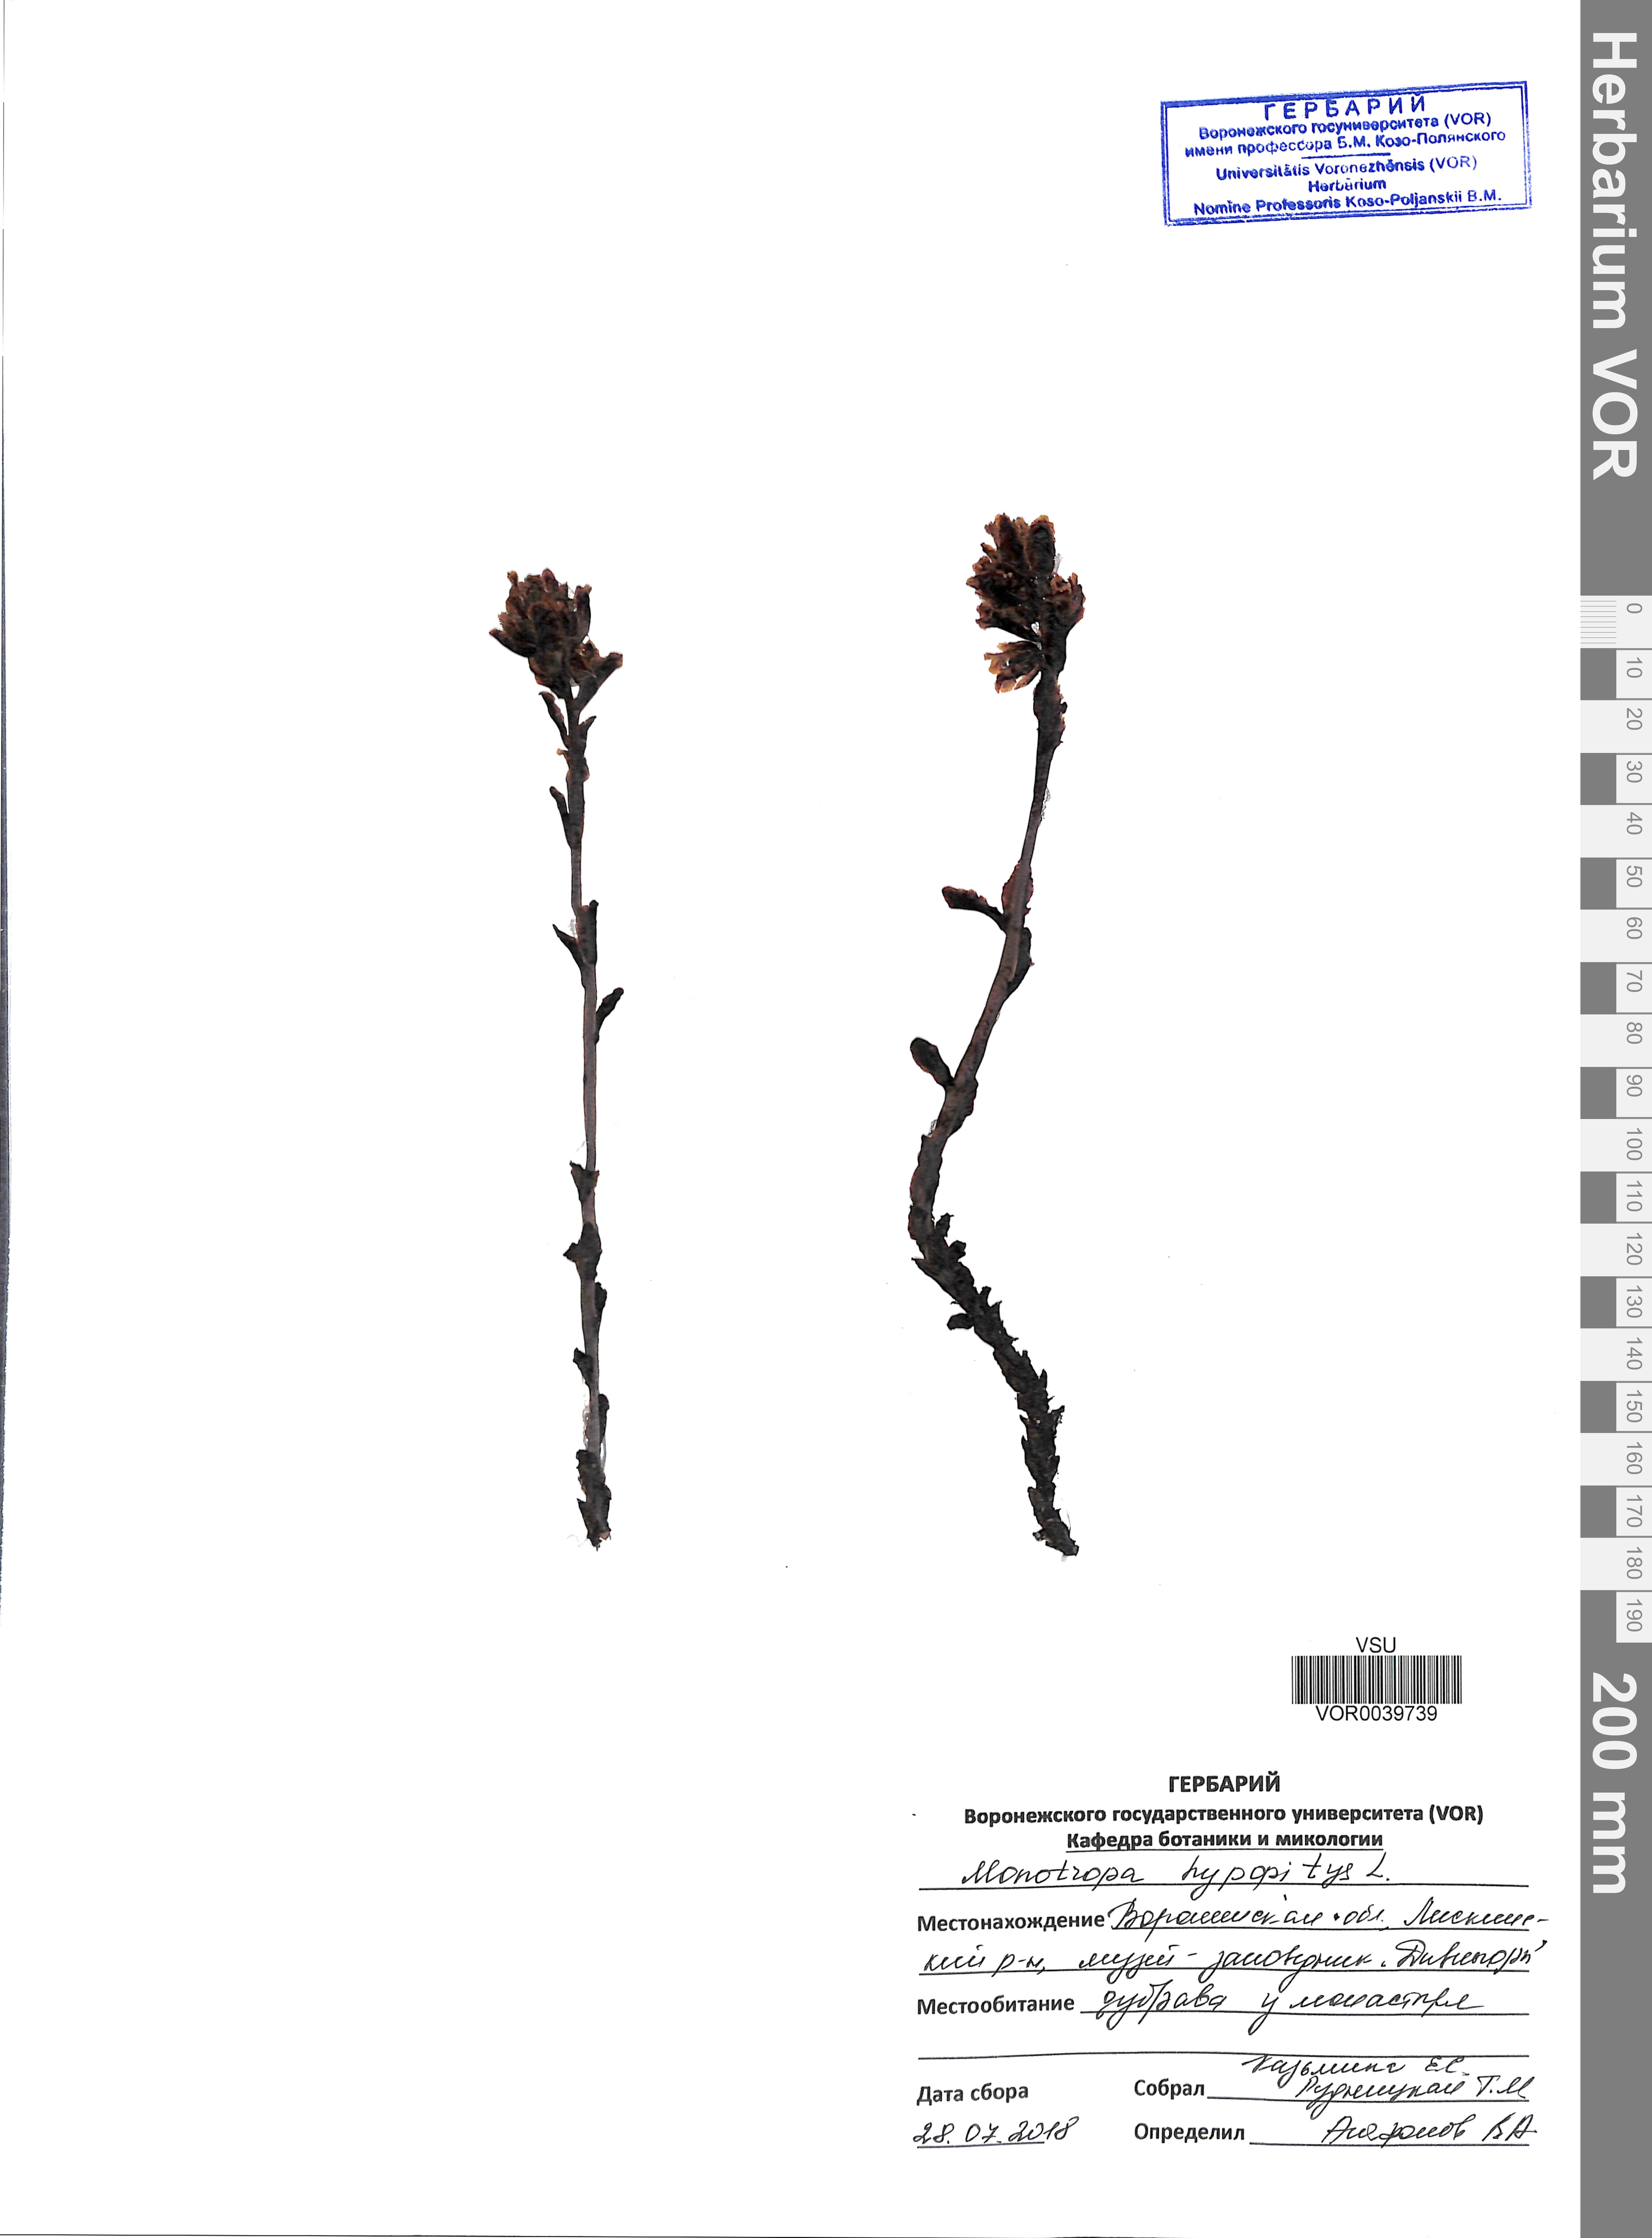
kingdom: Plantae
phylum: Tracheophyta
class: Magnoliopsida
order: Ericales
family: Ericaceae
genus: Hypopitys
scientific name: Hypopitys monotropa
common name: Yellow bird's-nest
